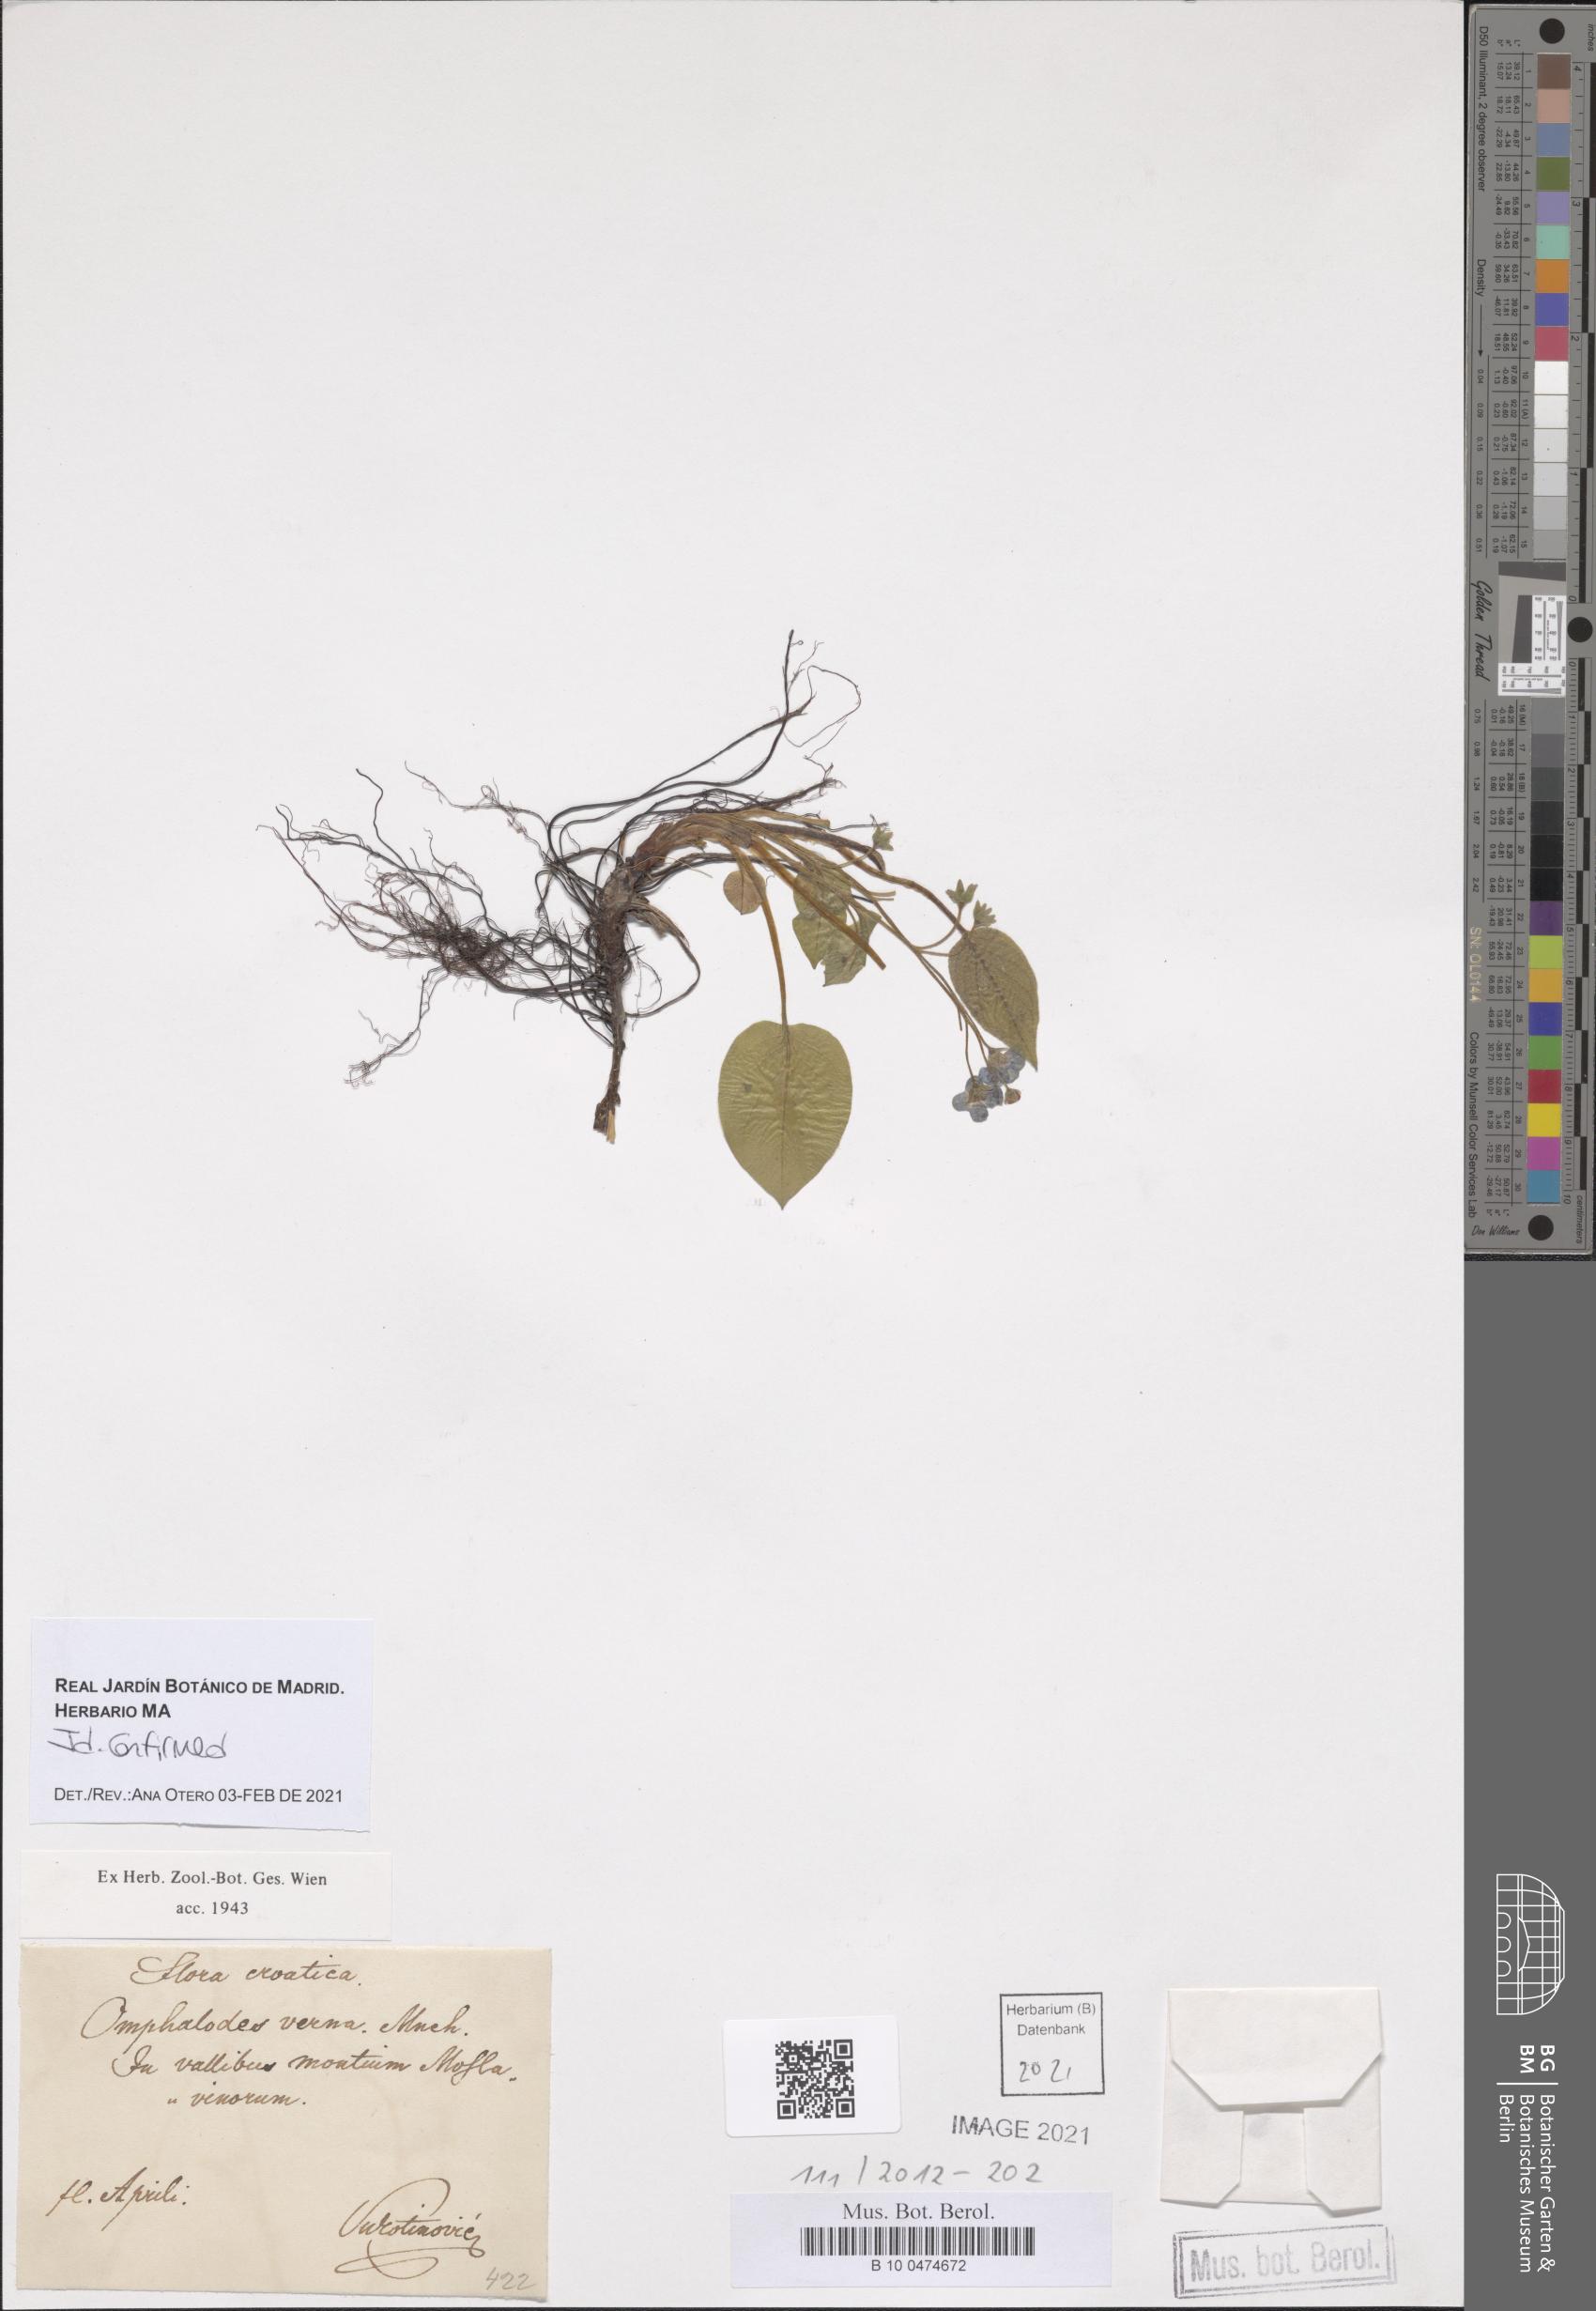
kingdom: Plantae
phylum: Tracheophyta
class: Magnoliopsida
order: Boraginales
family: Boraginaceae
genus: Omphalodes
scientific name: Omphalodes verna
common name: Blue-eyed-mary
